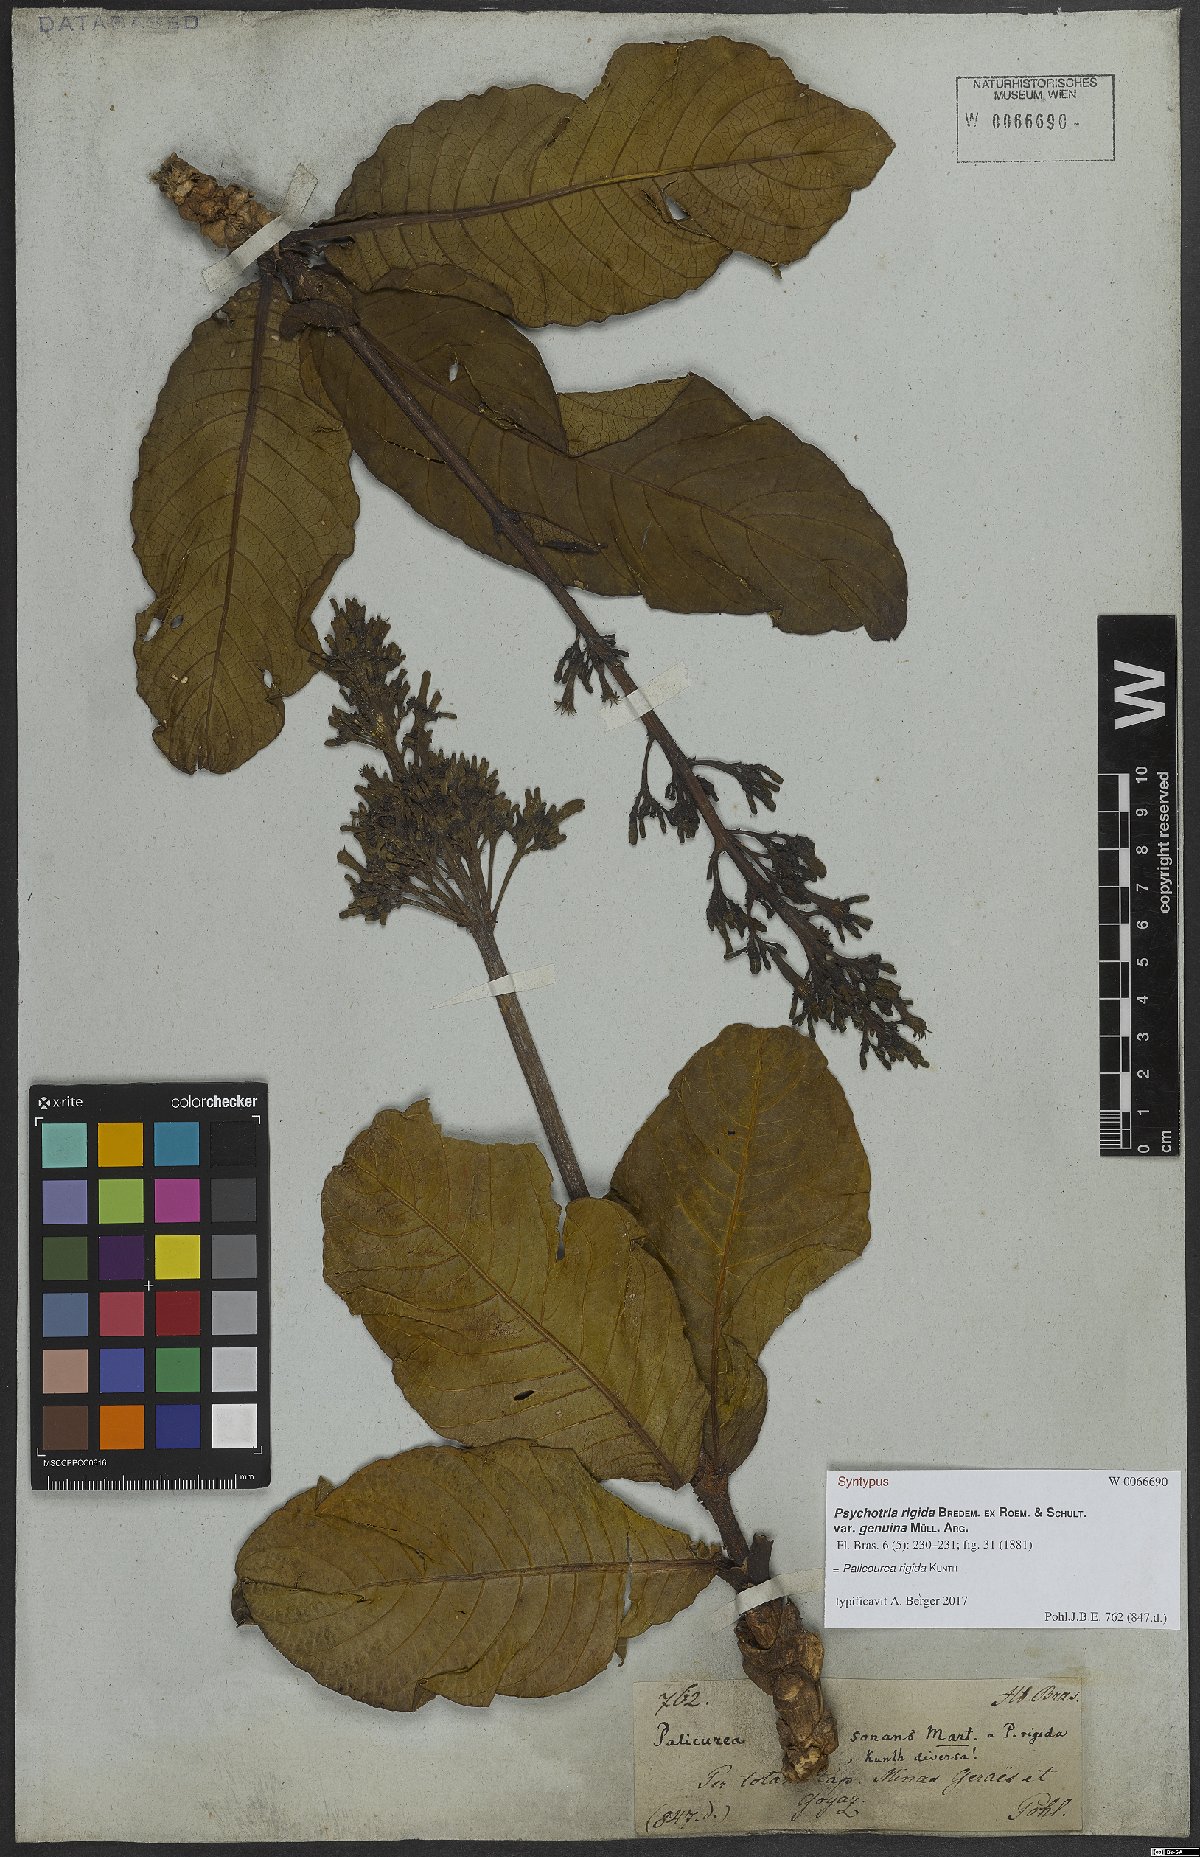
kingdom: Plantae
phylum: Tracheophyta
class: Magnoliopsida
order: Gentianales
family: Rubiaceae
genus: Palicourea
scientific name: Palicourea rigida
